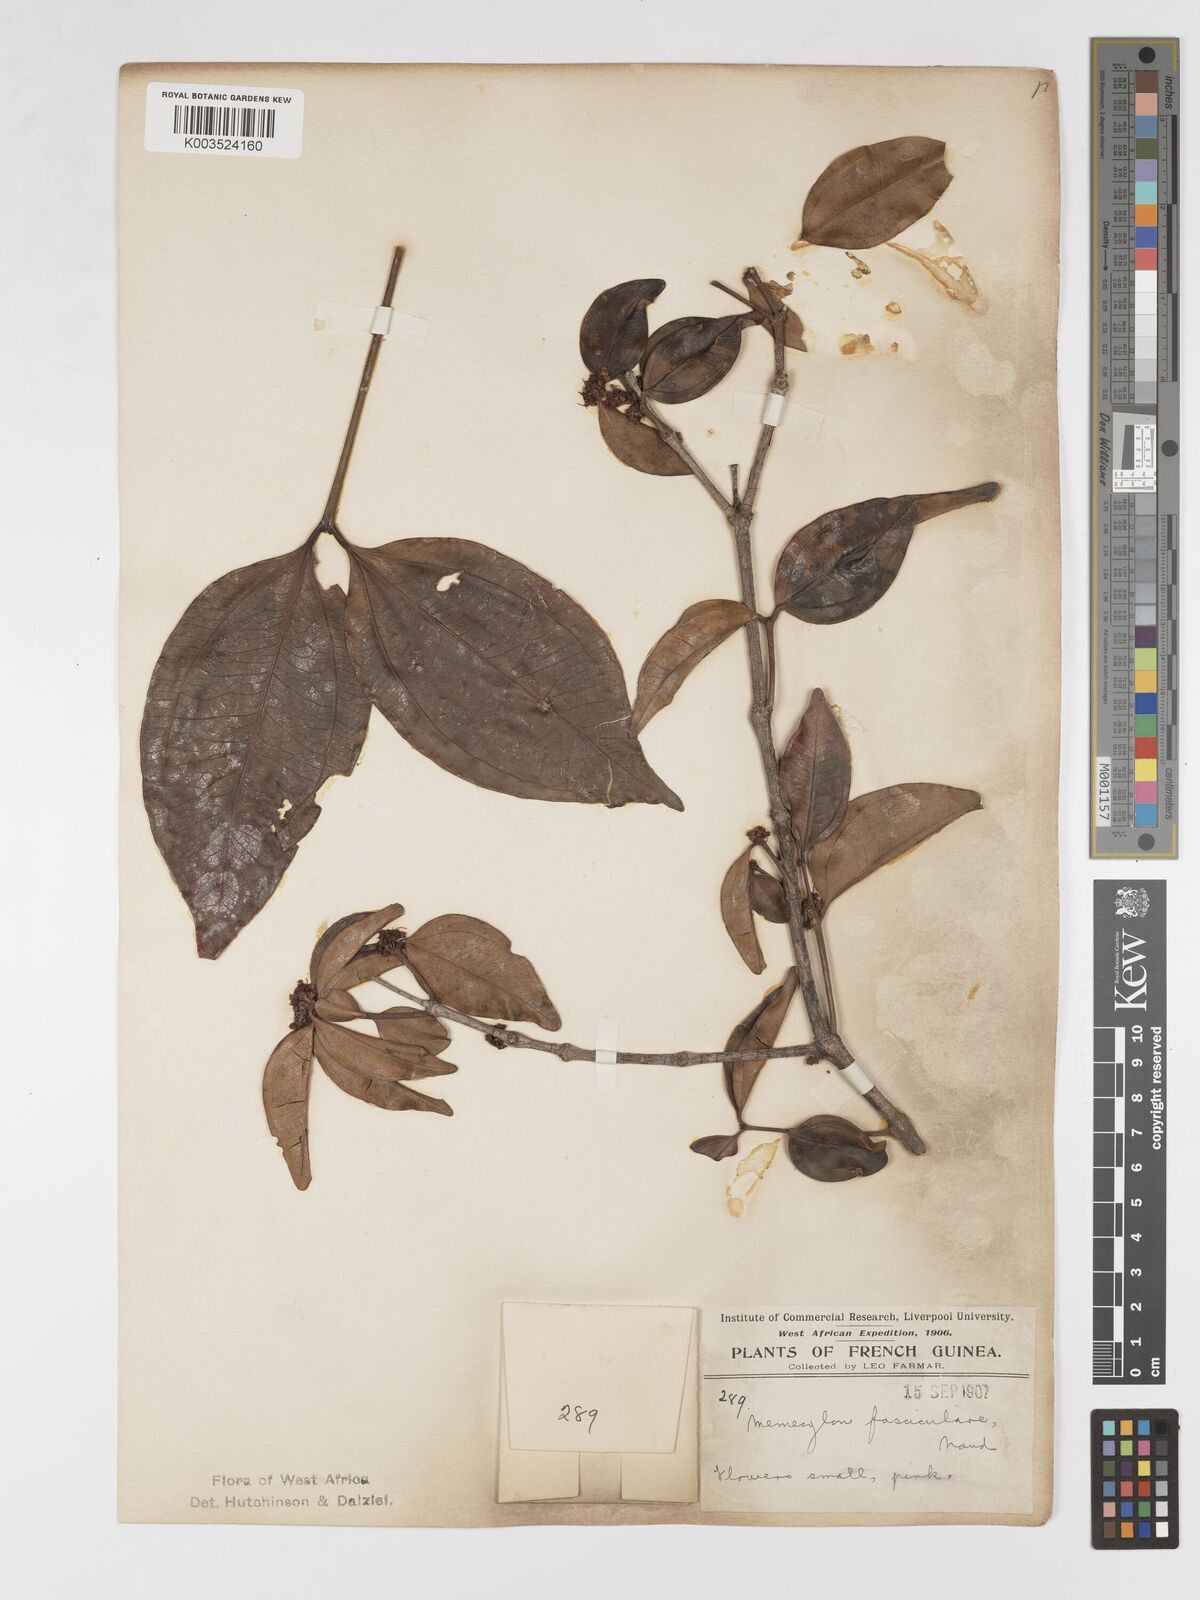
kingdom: Plantae
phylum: Tracheophyta
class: Magnoliopsida
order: Myrtales
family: Melastomataceae
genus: Warneckea
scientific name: Warneckea fascicularis
